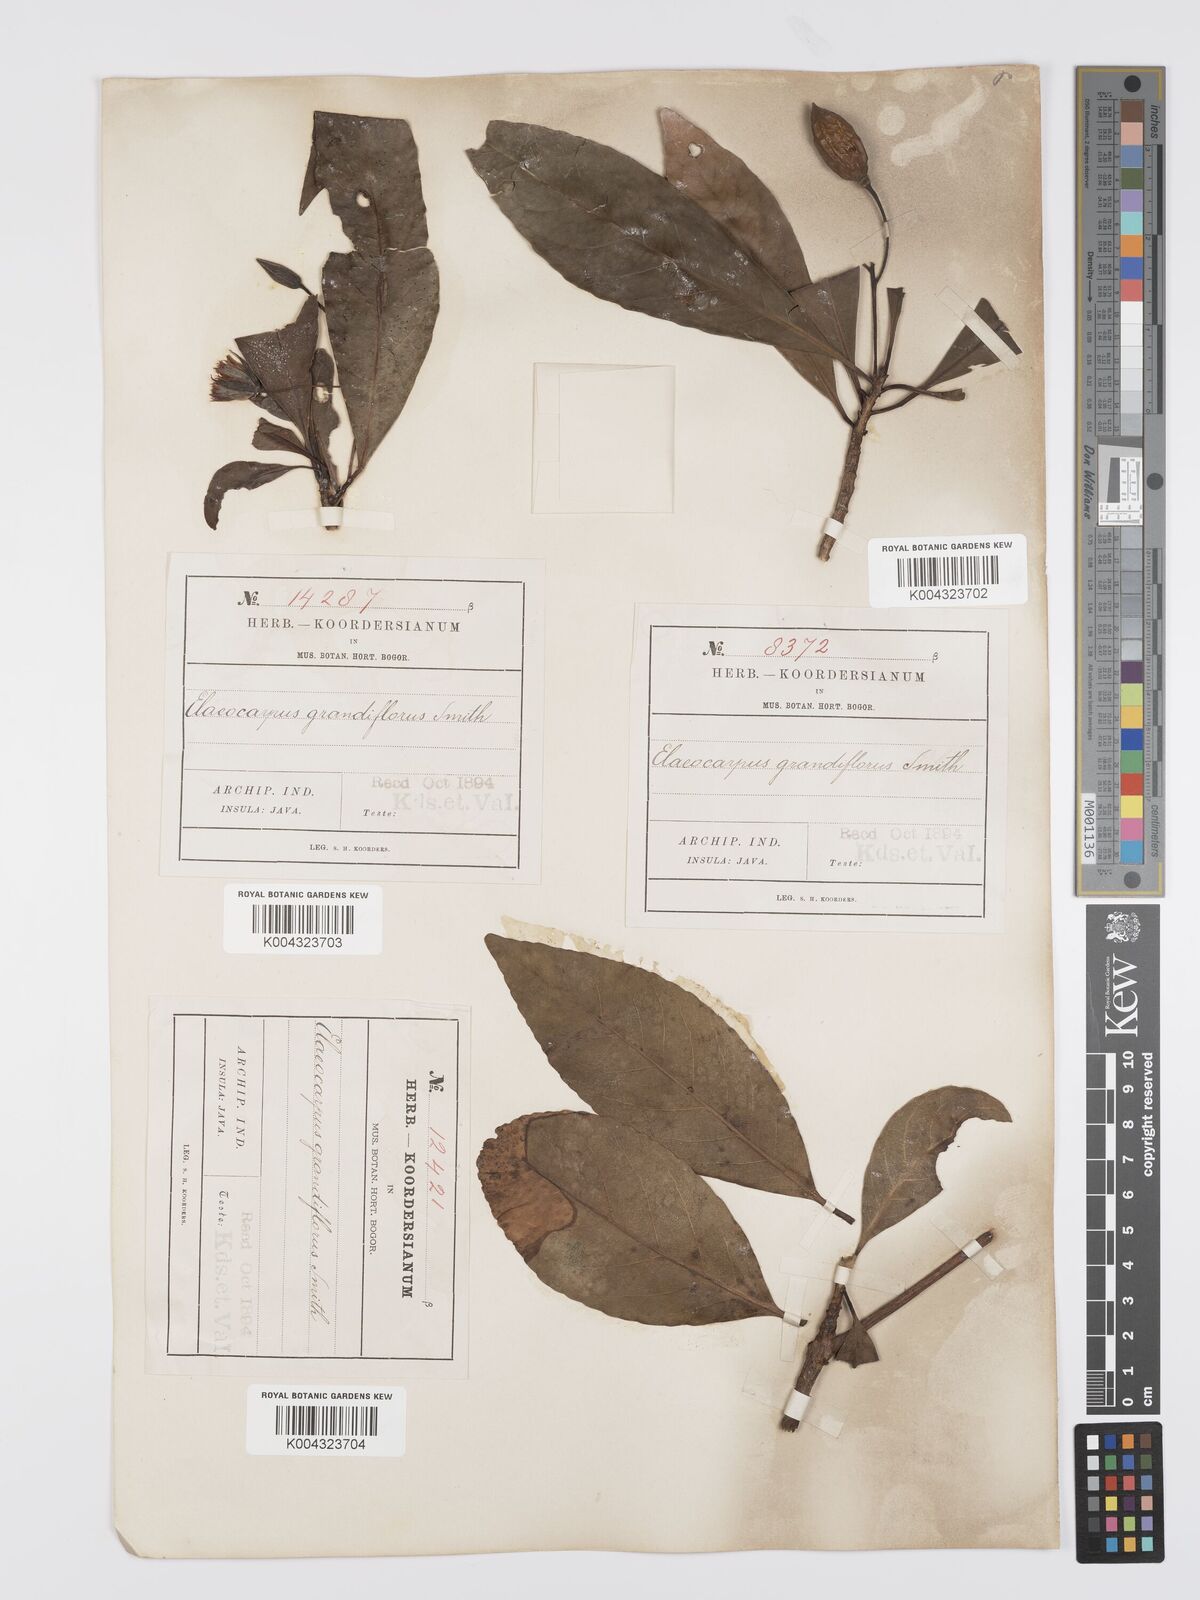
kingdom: Plantae
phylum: Tracheophyta
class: Magnoliopsida
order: Oxalidales
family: Elaeocarpaceae
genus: Elaeocarpus
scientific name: Elaeocarpus grandiflorus
